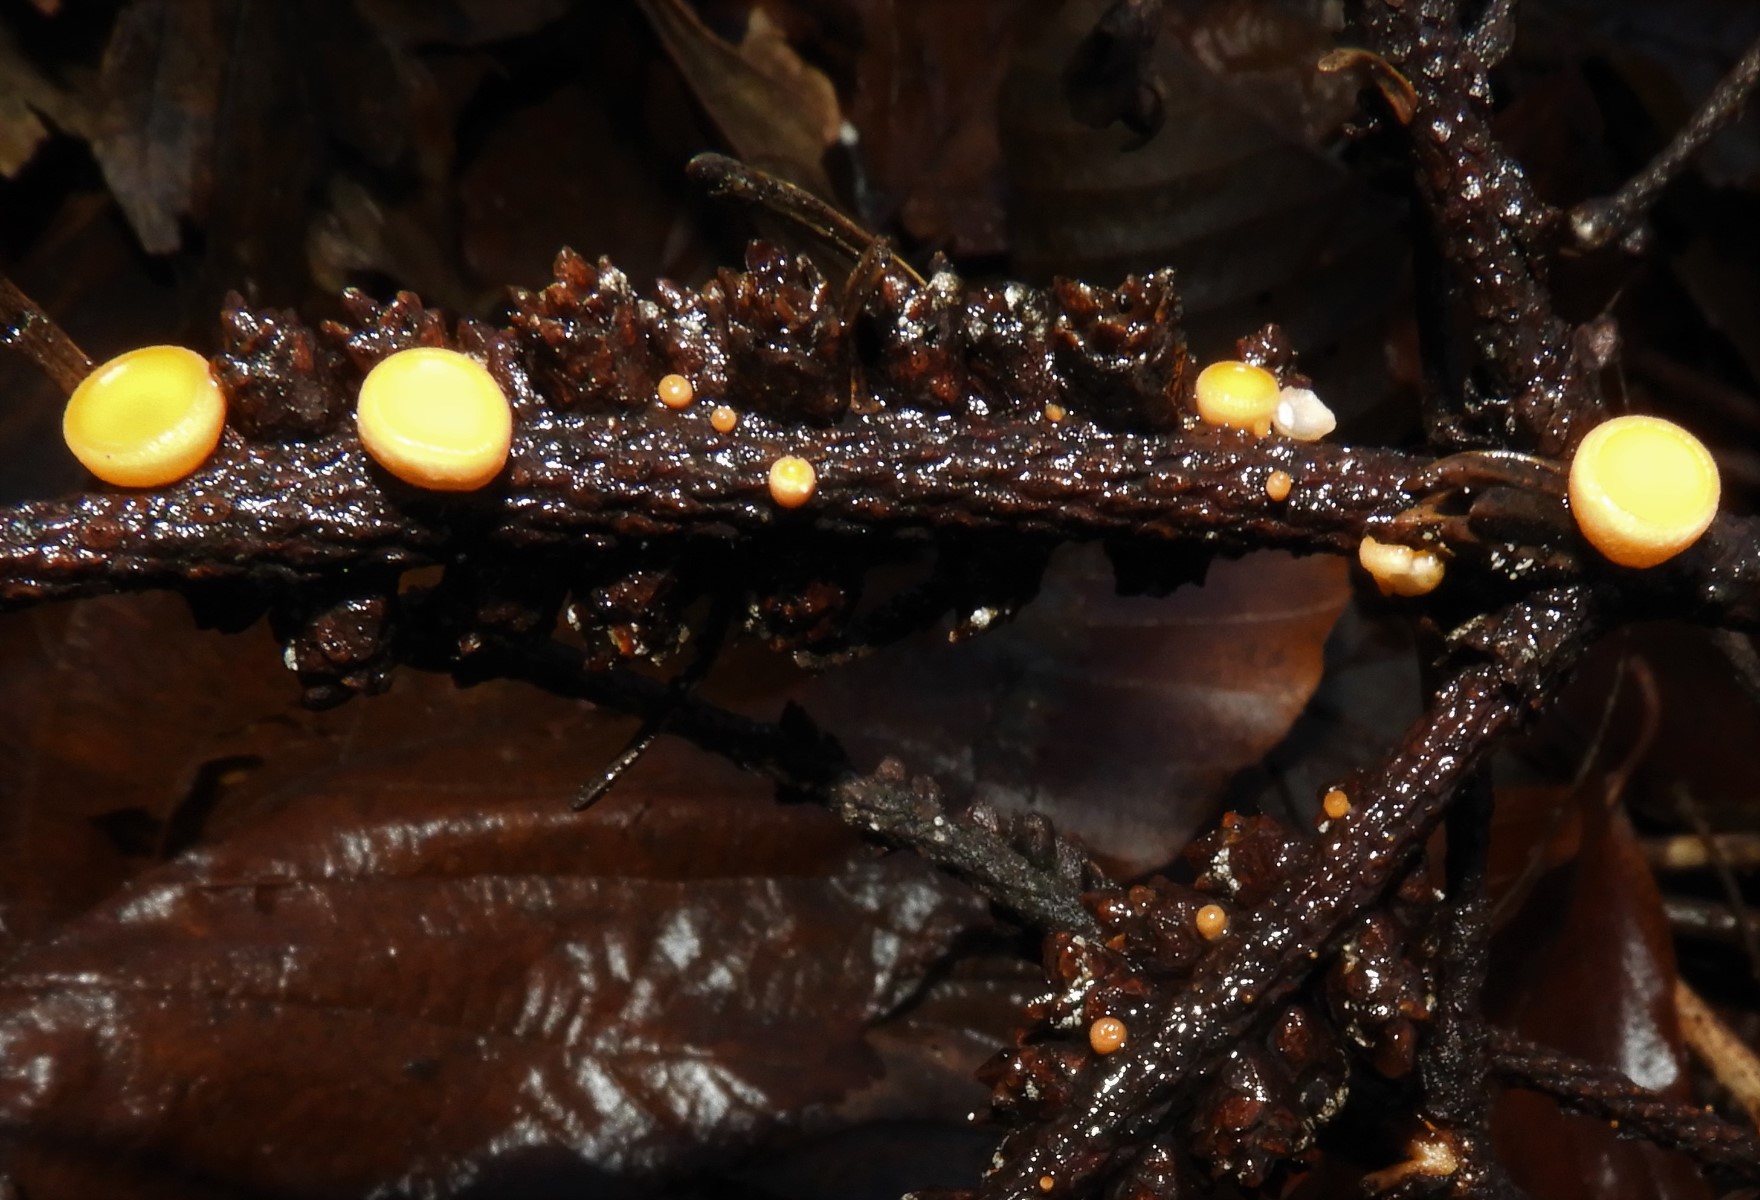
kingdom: Fungi
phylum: Ascomycota
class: Pezizomycetes
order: Pezizales
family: Sarcoscyphaceae
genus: Pithya
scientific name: Pithya vulgaris
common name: stor dukatbæger
